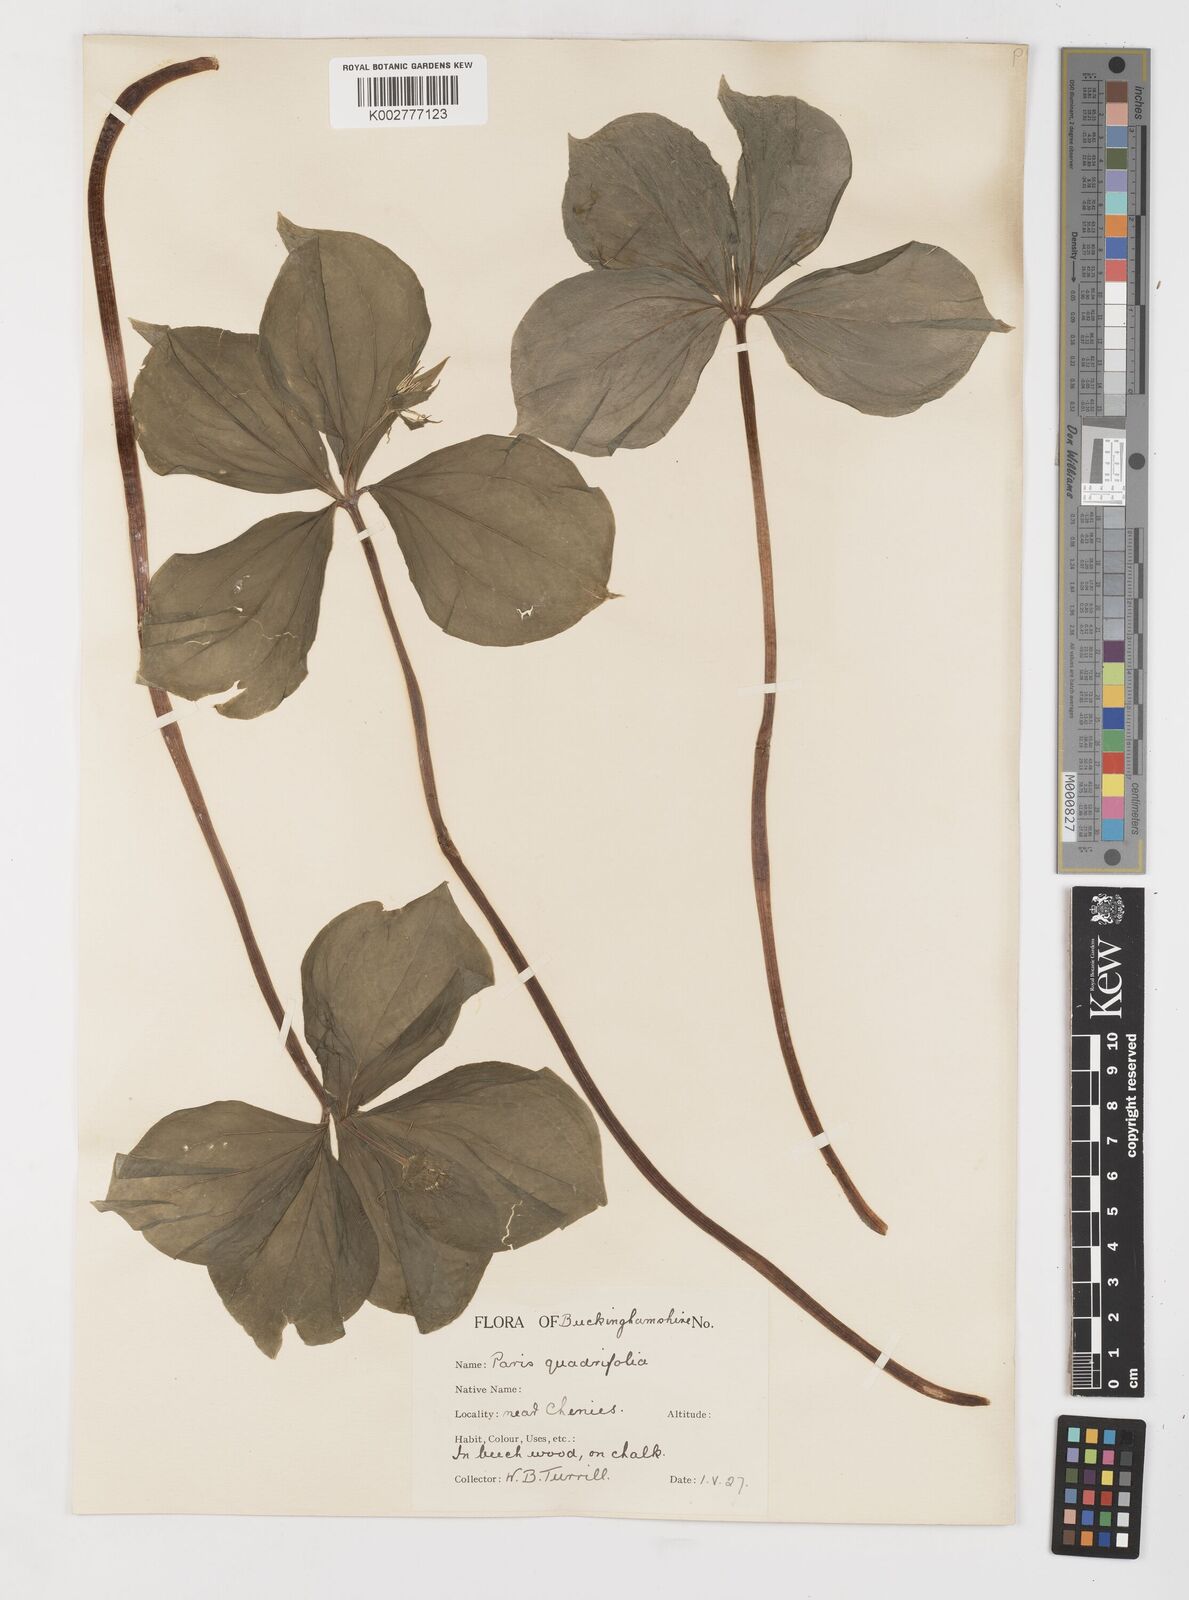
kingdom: Plantae
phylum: Tracheophyta
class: Liliopsida
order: Liliales
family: Melanthiaceae
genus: Paris
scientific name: Paris quadrifolia
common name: Herb-paris
